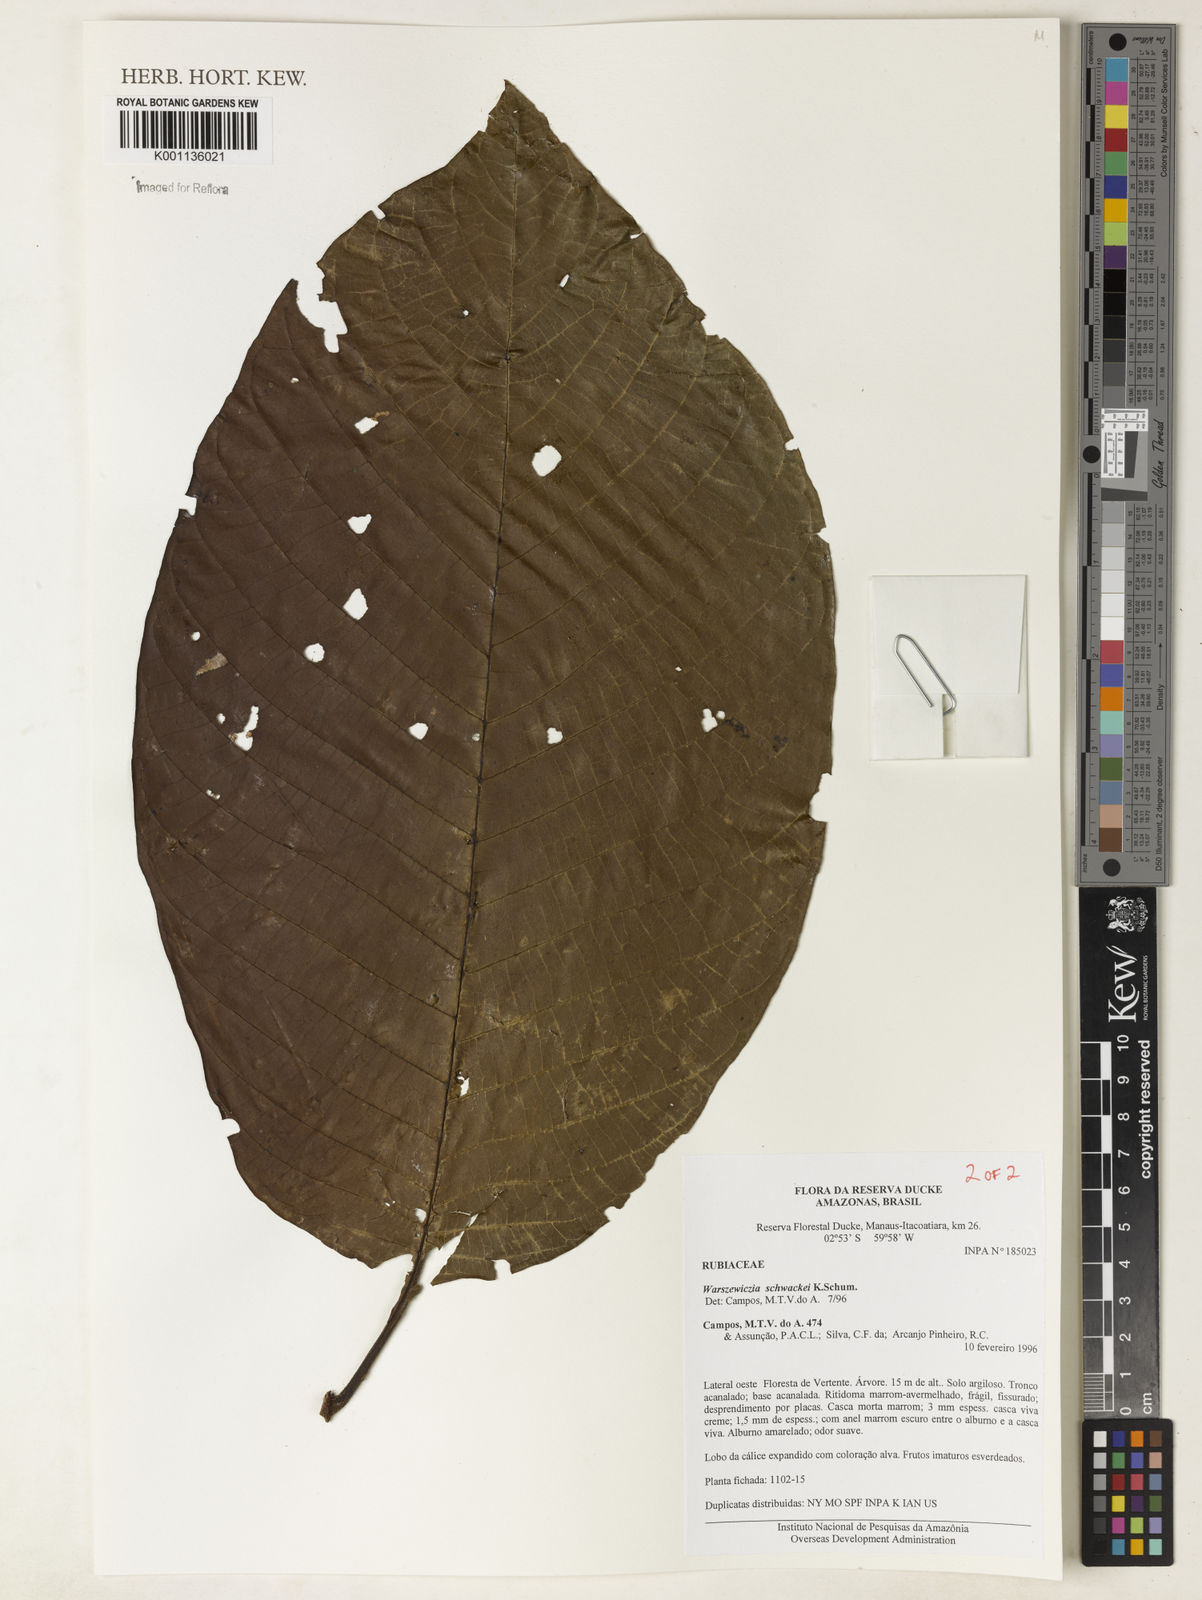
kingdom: Plantae
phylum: Tracheophyta
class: Magnoliopsida
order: Gentianales
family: Rubiaceae
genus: Warszewiczia
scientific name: Warszewiczia schwackei
